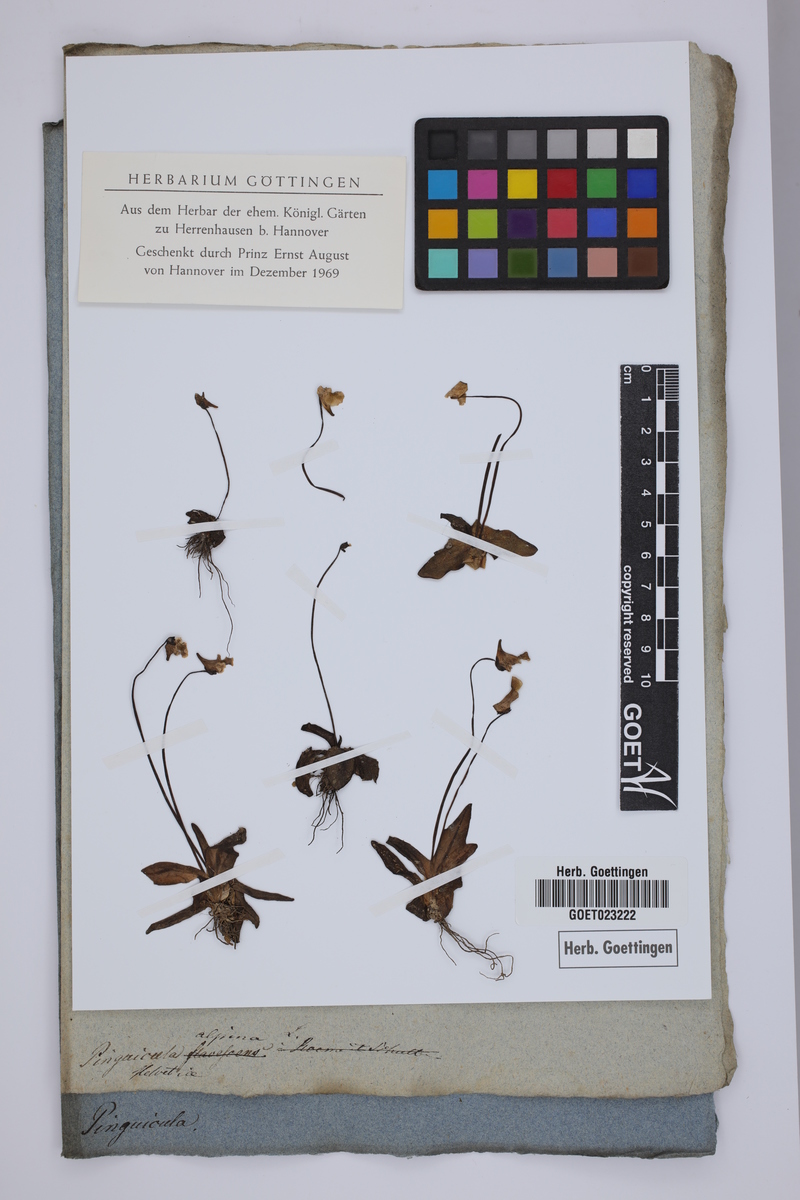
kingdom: Plantae
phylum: Tracheophyta
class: Magnoliopsida
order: Lamiales
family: Lentibulariaceae
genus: Pinguicula
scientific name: Pinguicula alpina
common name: Alpine butterwort
